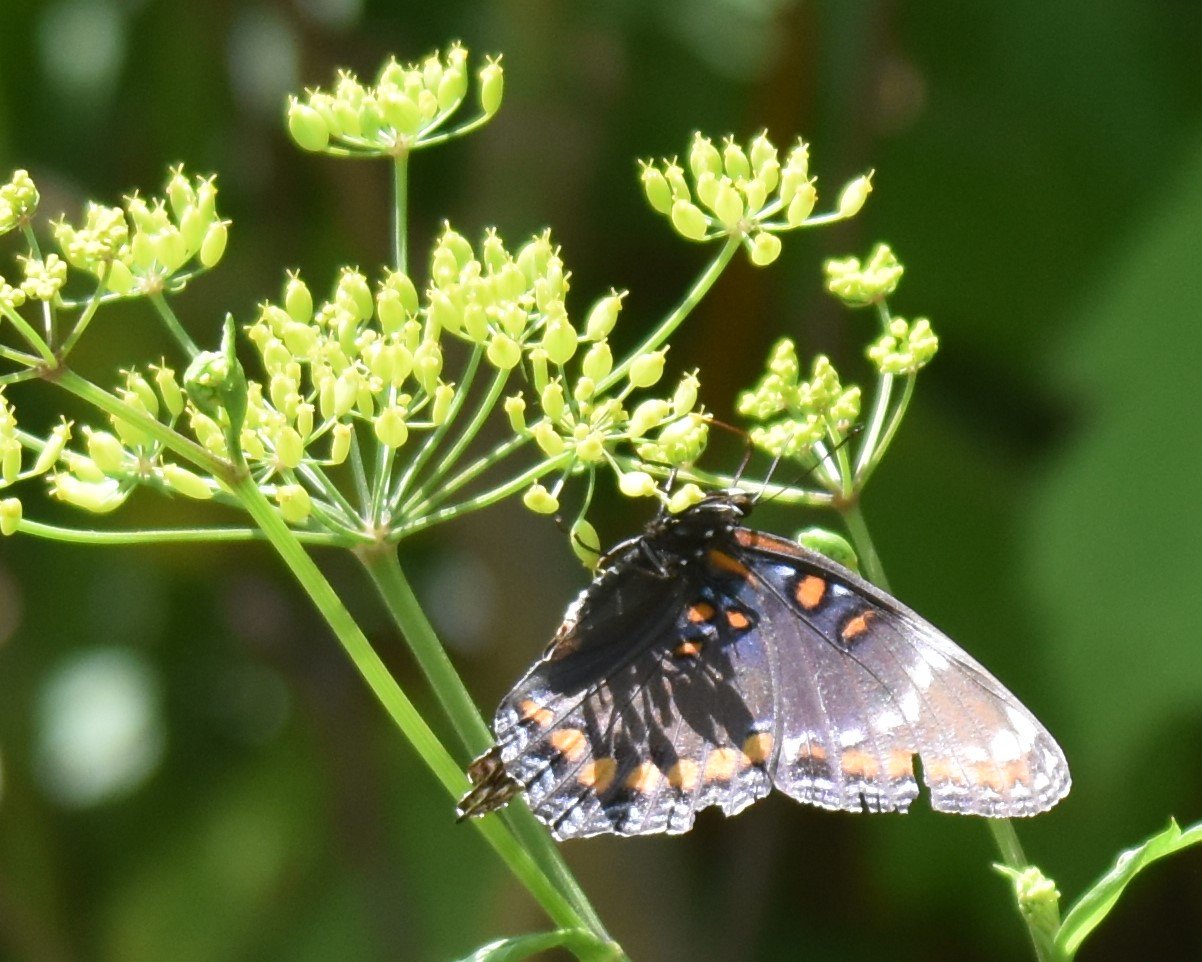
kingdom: Animalia
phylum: Arthropoda
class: Insecta
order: Lepidoptera
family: Nymphalidae
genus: Limenitis
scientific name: Limenitis astyanax
